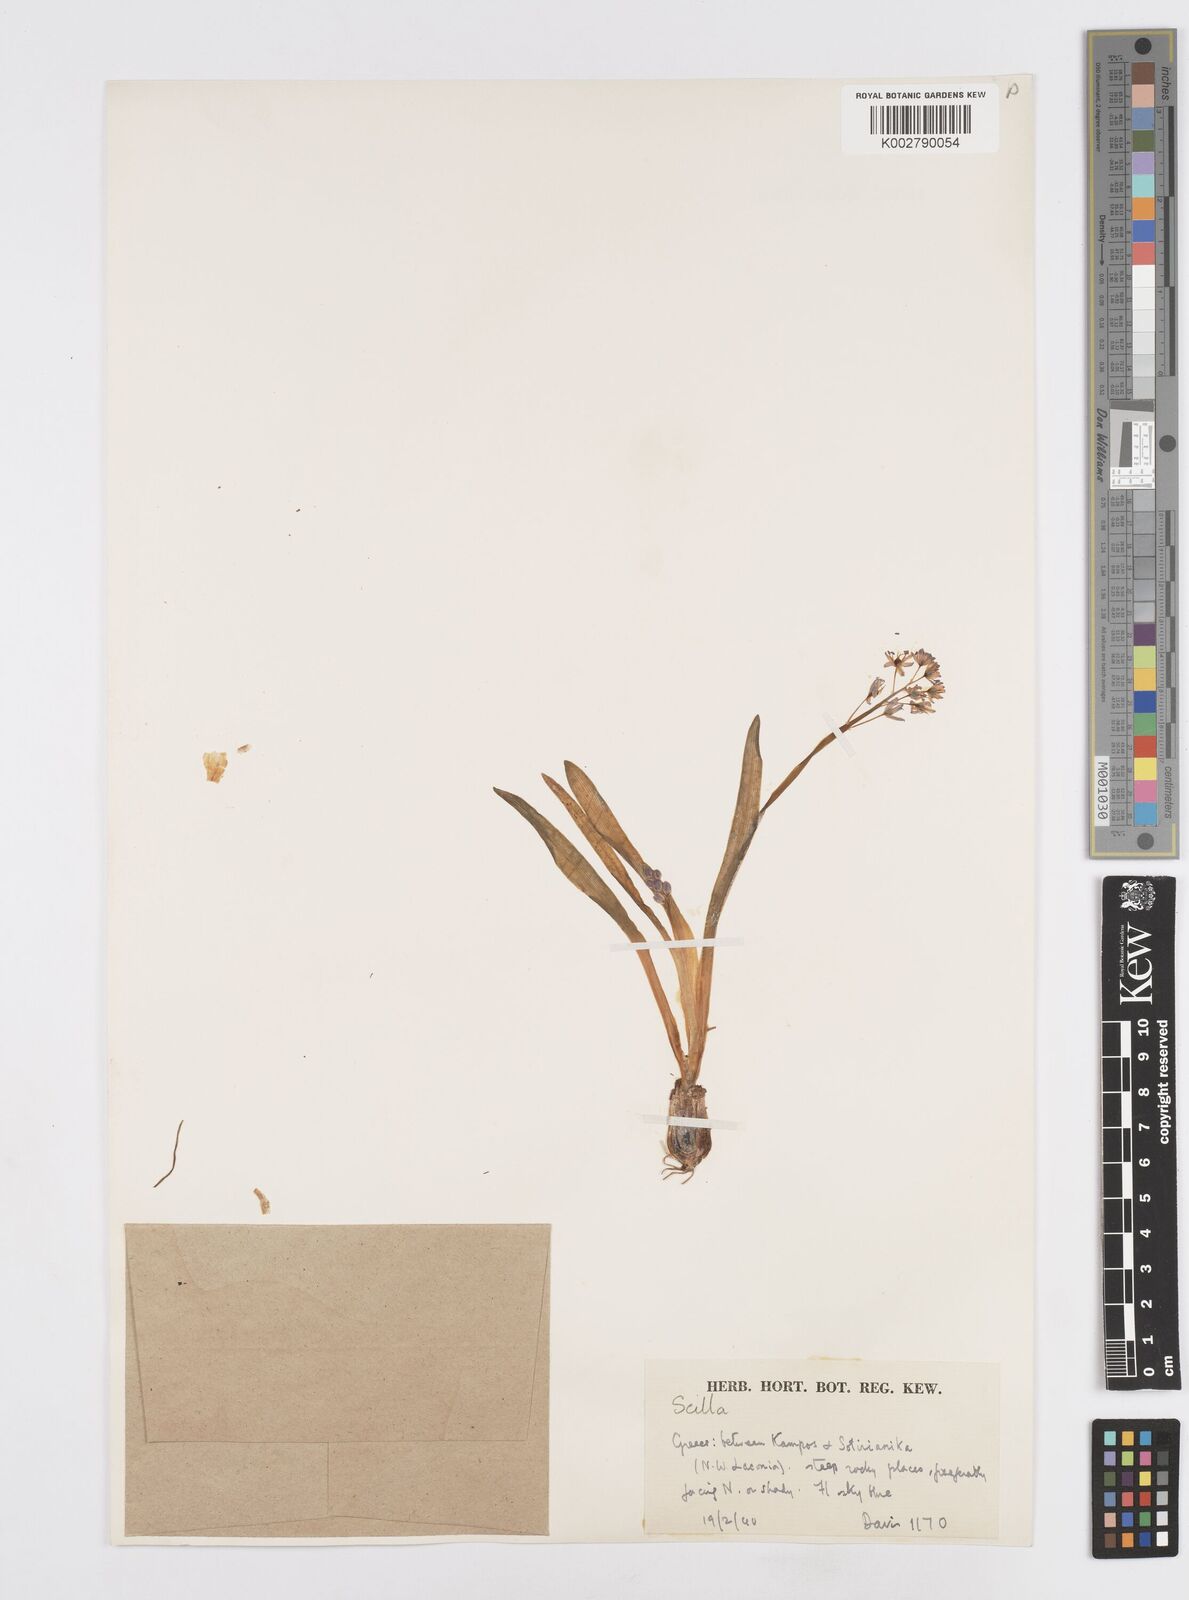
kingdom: Plantae
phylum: Tracheophyta
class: Liliopsida
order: Asparagales
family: Asparagaceae
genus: Scilla
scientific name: Scilla messeniaca
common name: Greek squill
